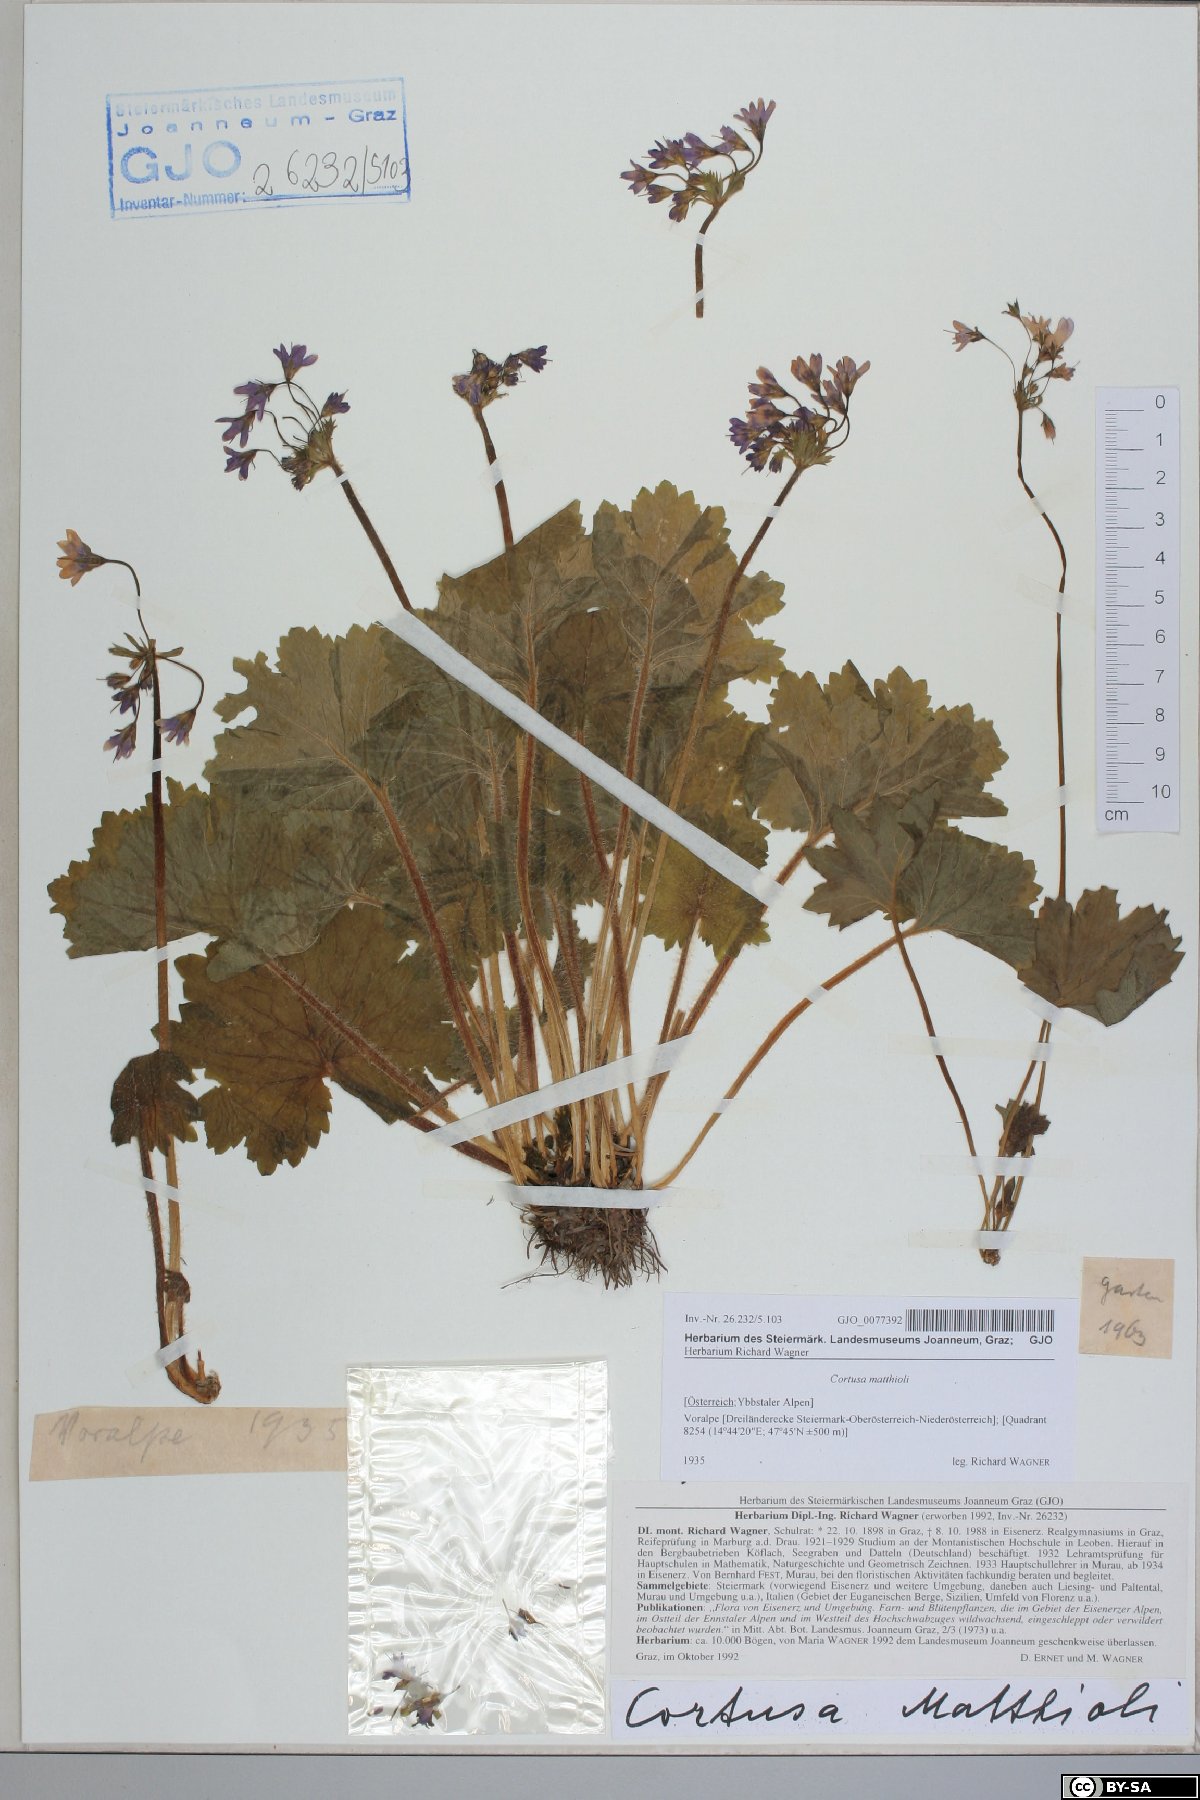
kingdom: Plantae
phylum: Tracheophyta
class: Magnoliopsida
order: Ericales
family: Primulaceae
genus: Primula
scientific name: Primula matthioli
